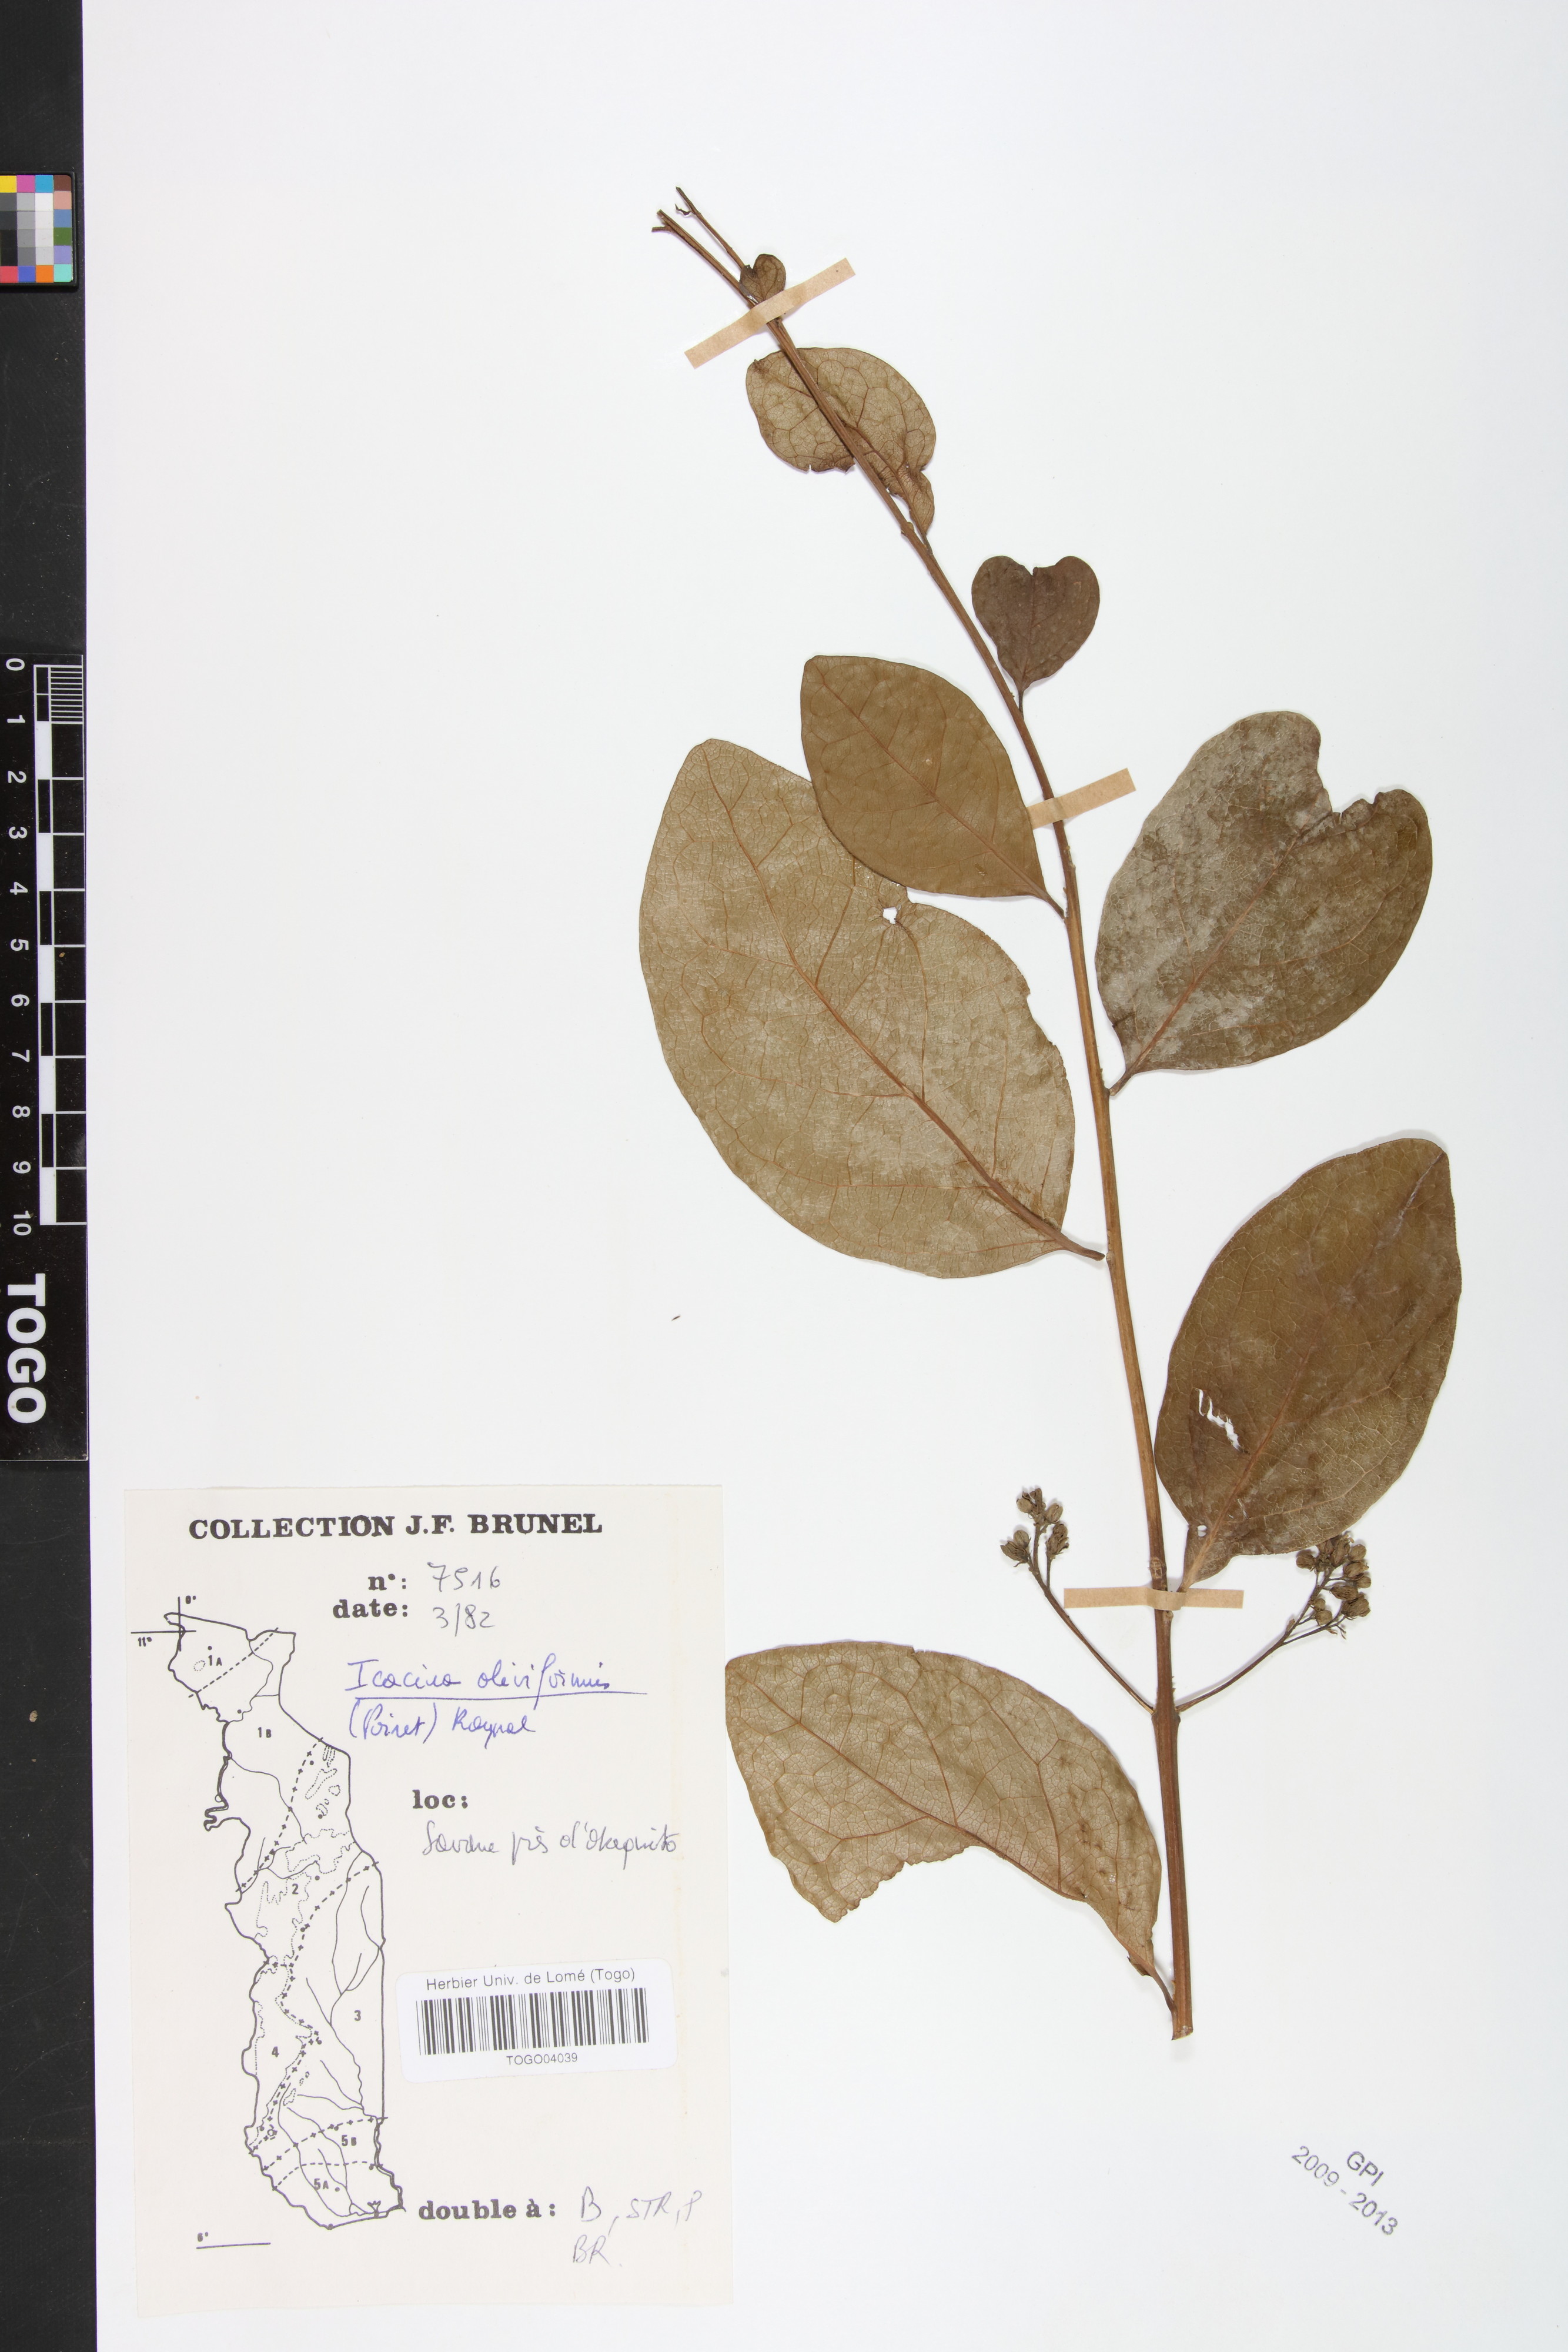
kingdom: Plantae
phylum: Tracheophyta
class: Magnoliopsida
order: Icacinales
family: Icacinaceae
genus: Icacina
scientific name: Icacina oliviformis
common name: False yam
